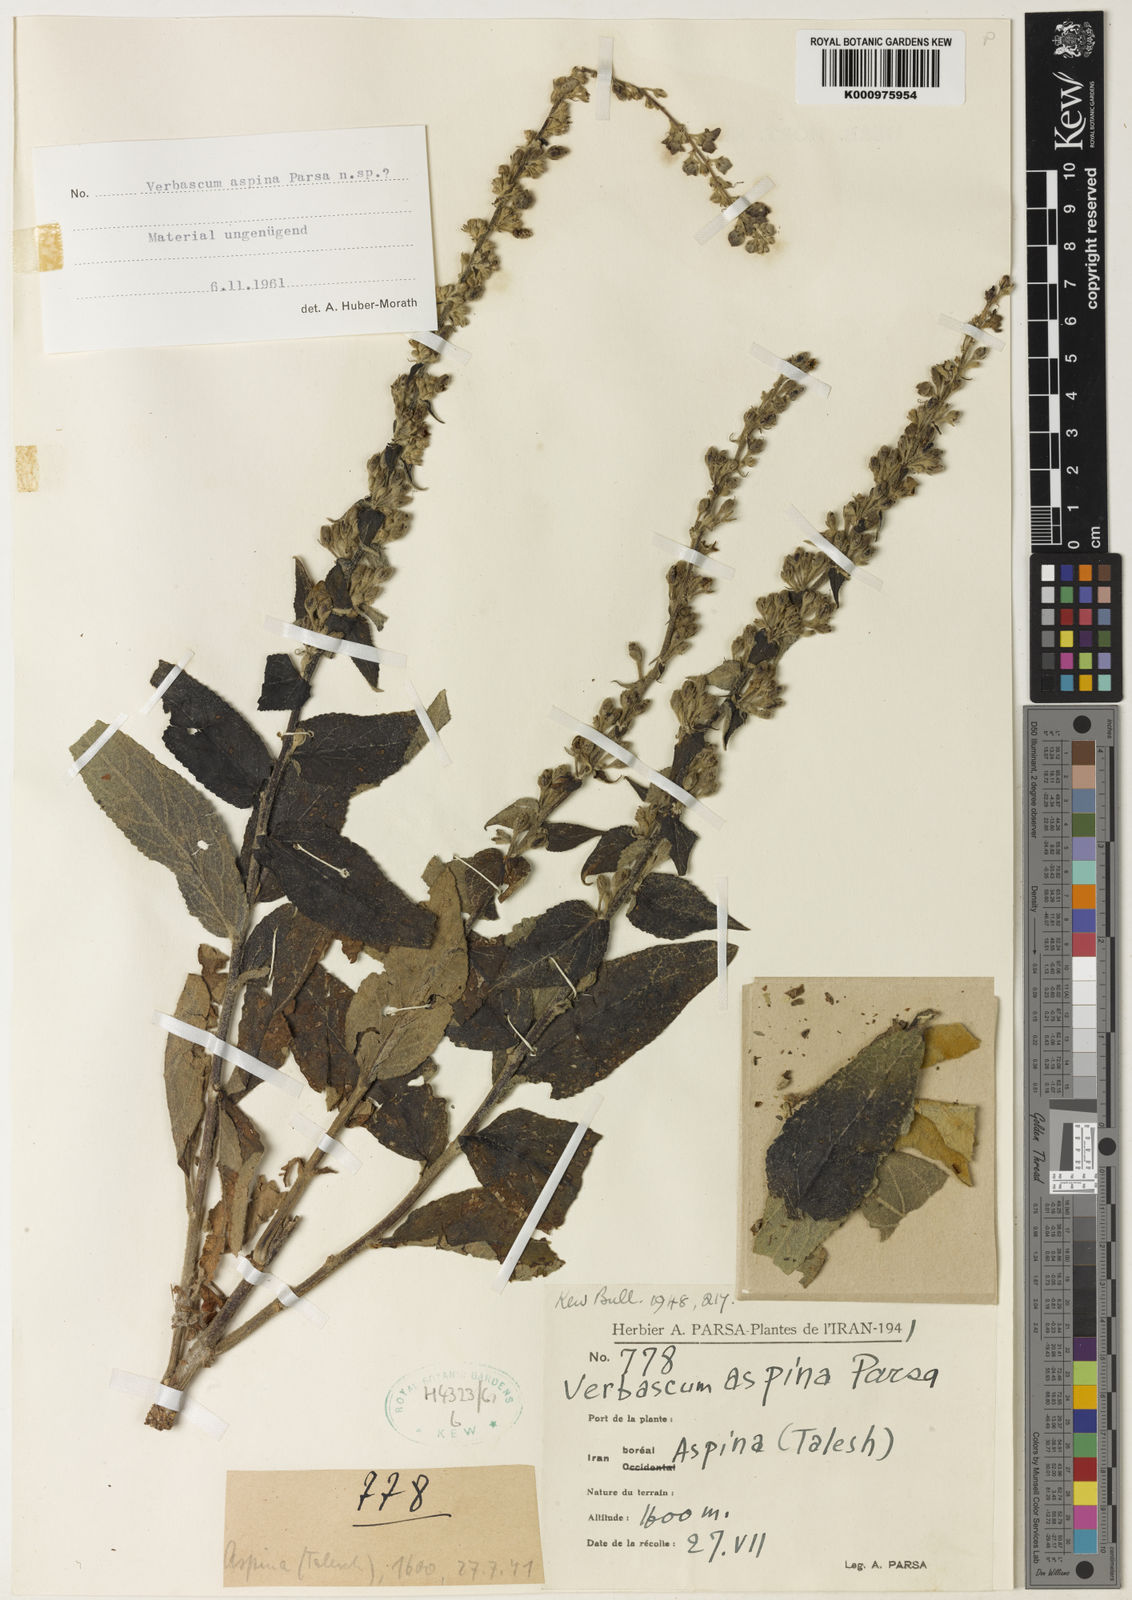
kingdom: Plantae
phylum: Tracheophyta
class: Magnoliopsida
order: Lamiales
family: Scrophulariaceae
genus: Verbascum
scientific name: Verbascum stachydiforme
